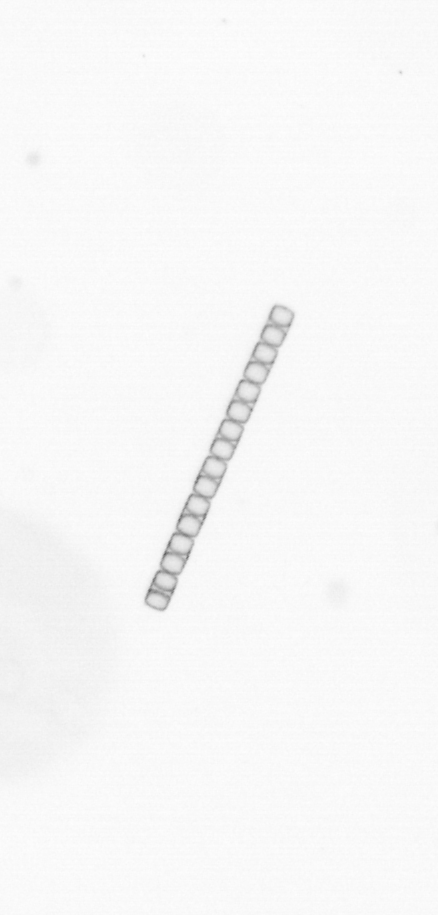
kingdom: Chromista
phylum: Ochrophyta
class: Bacillariophyceae
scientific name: Bacillariophyceae
